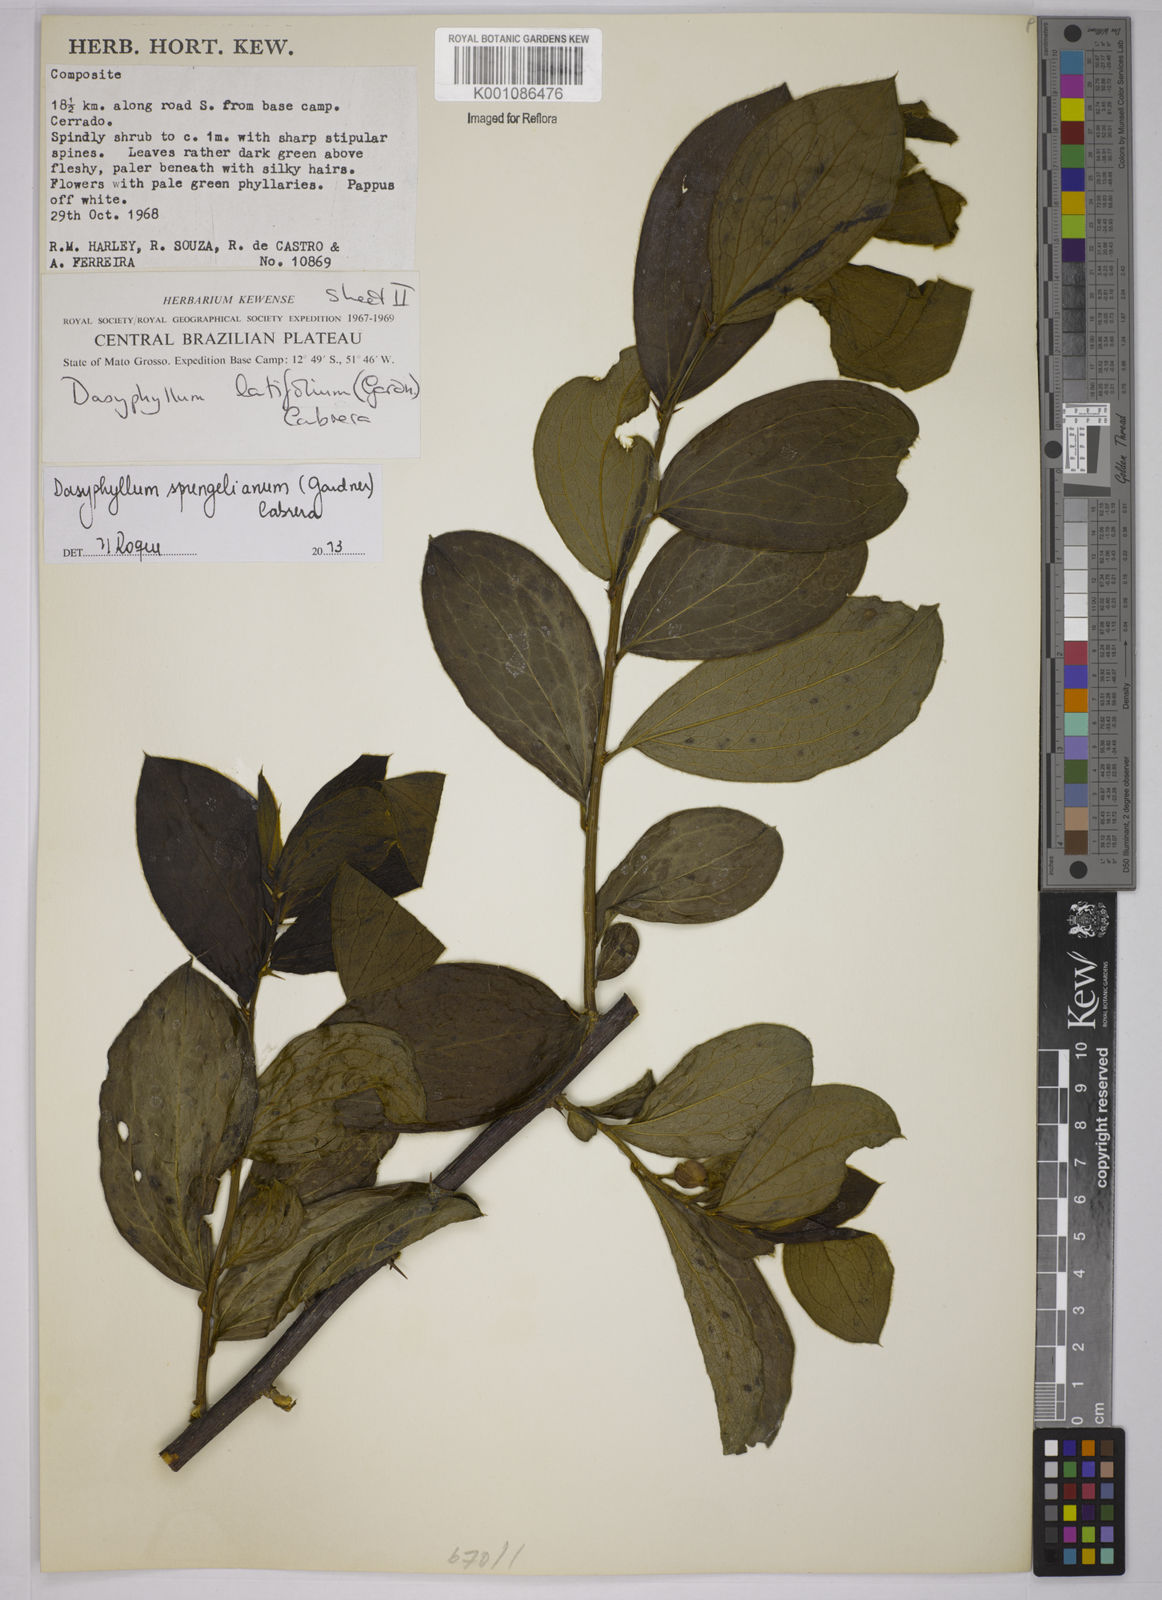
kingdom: Plantae
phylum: Tracheophyta
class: Magnoliopsida
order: Asterales
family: Asteraceae
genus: Dasyphyllum
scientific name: Dasyphyllum sprengelianum
